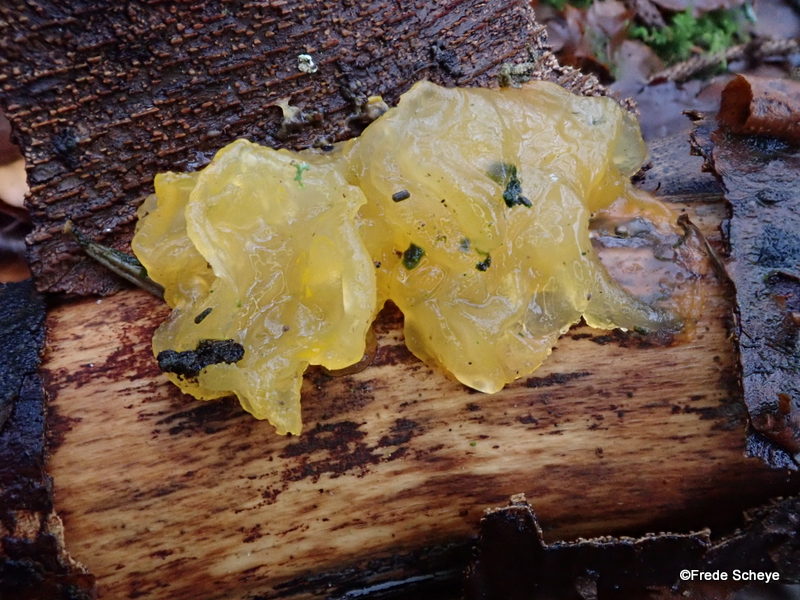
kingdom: Fungi
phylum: Basidiomycota
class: Tremellomycetes
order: Tremellales
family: Tremellaceae
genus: Tremella
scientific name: Tremella mesenterica
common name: gul bævresvamp
